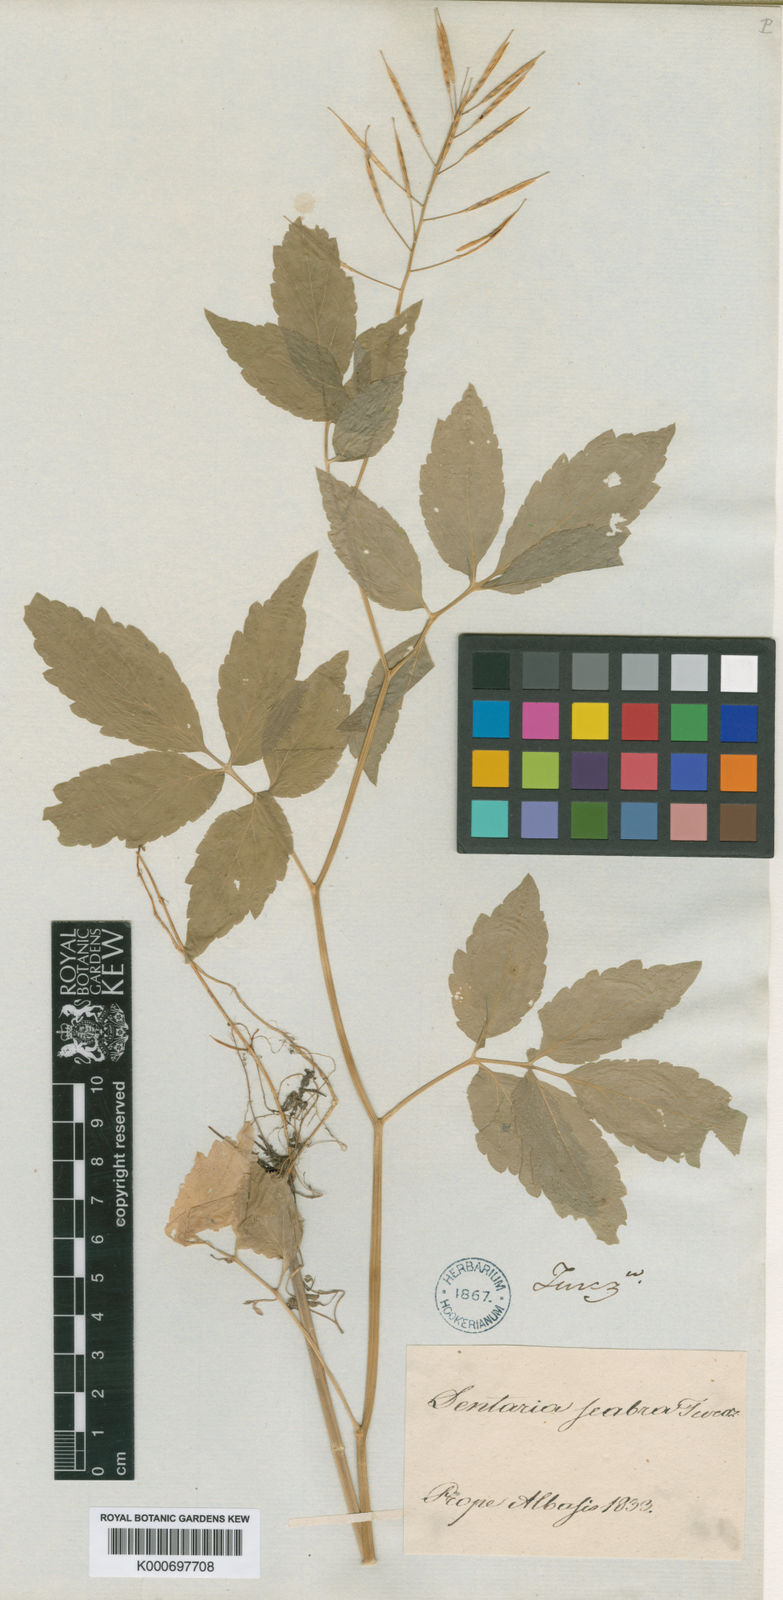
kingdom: Plantae
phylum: Tracheophyta
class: Magnoliopsida
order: Brassicales
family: Brassicaceae
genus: Cardamine
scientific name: Cardamine
